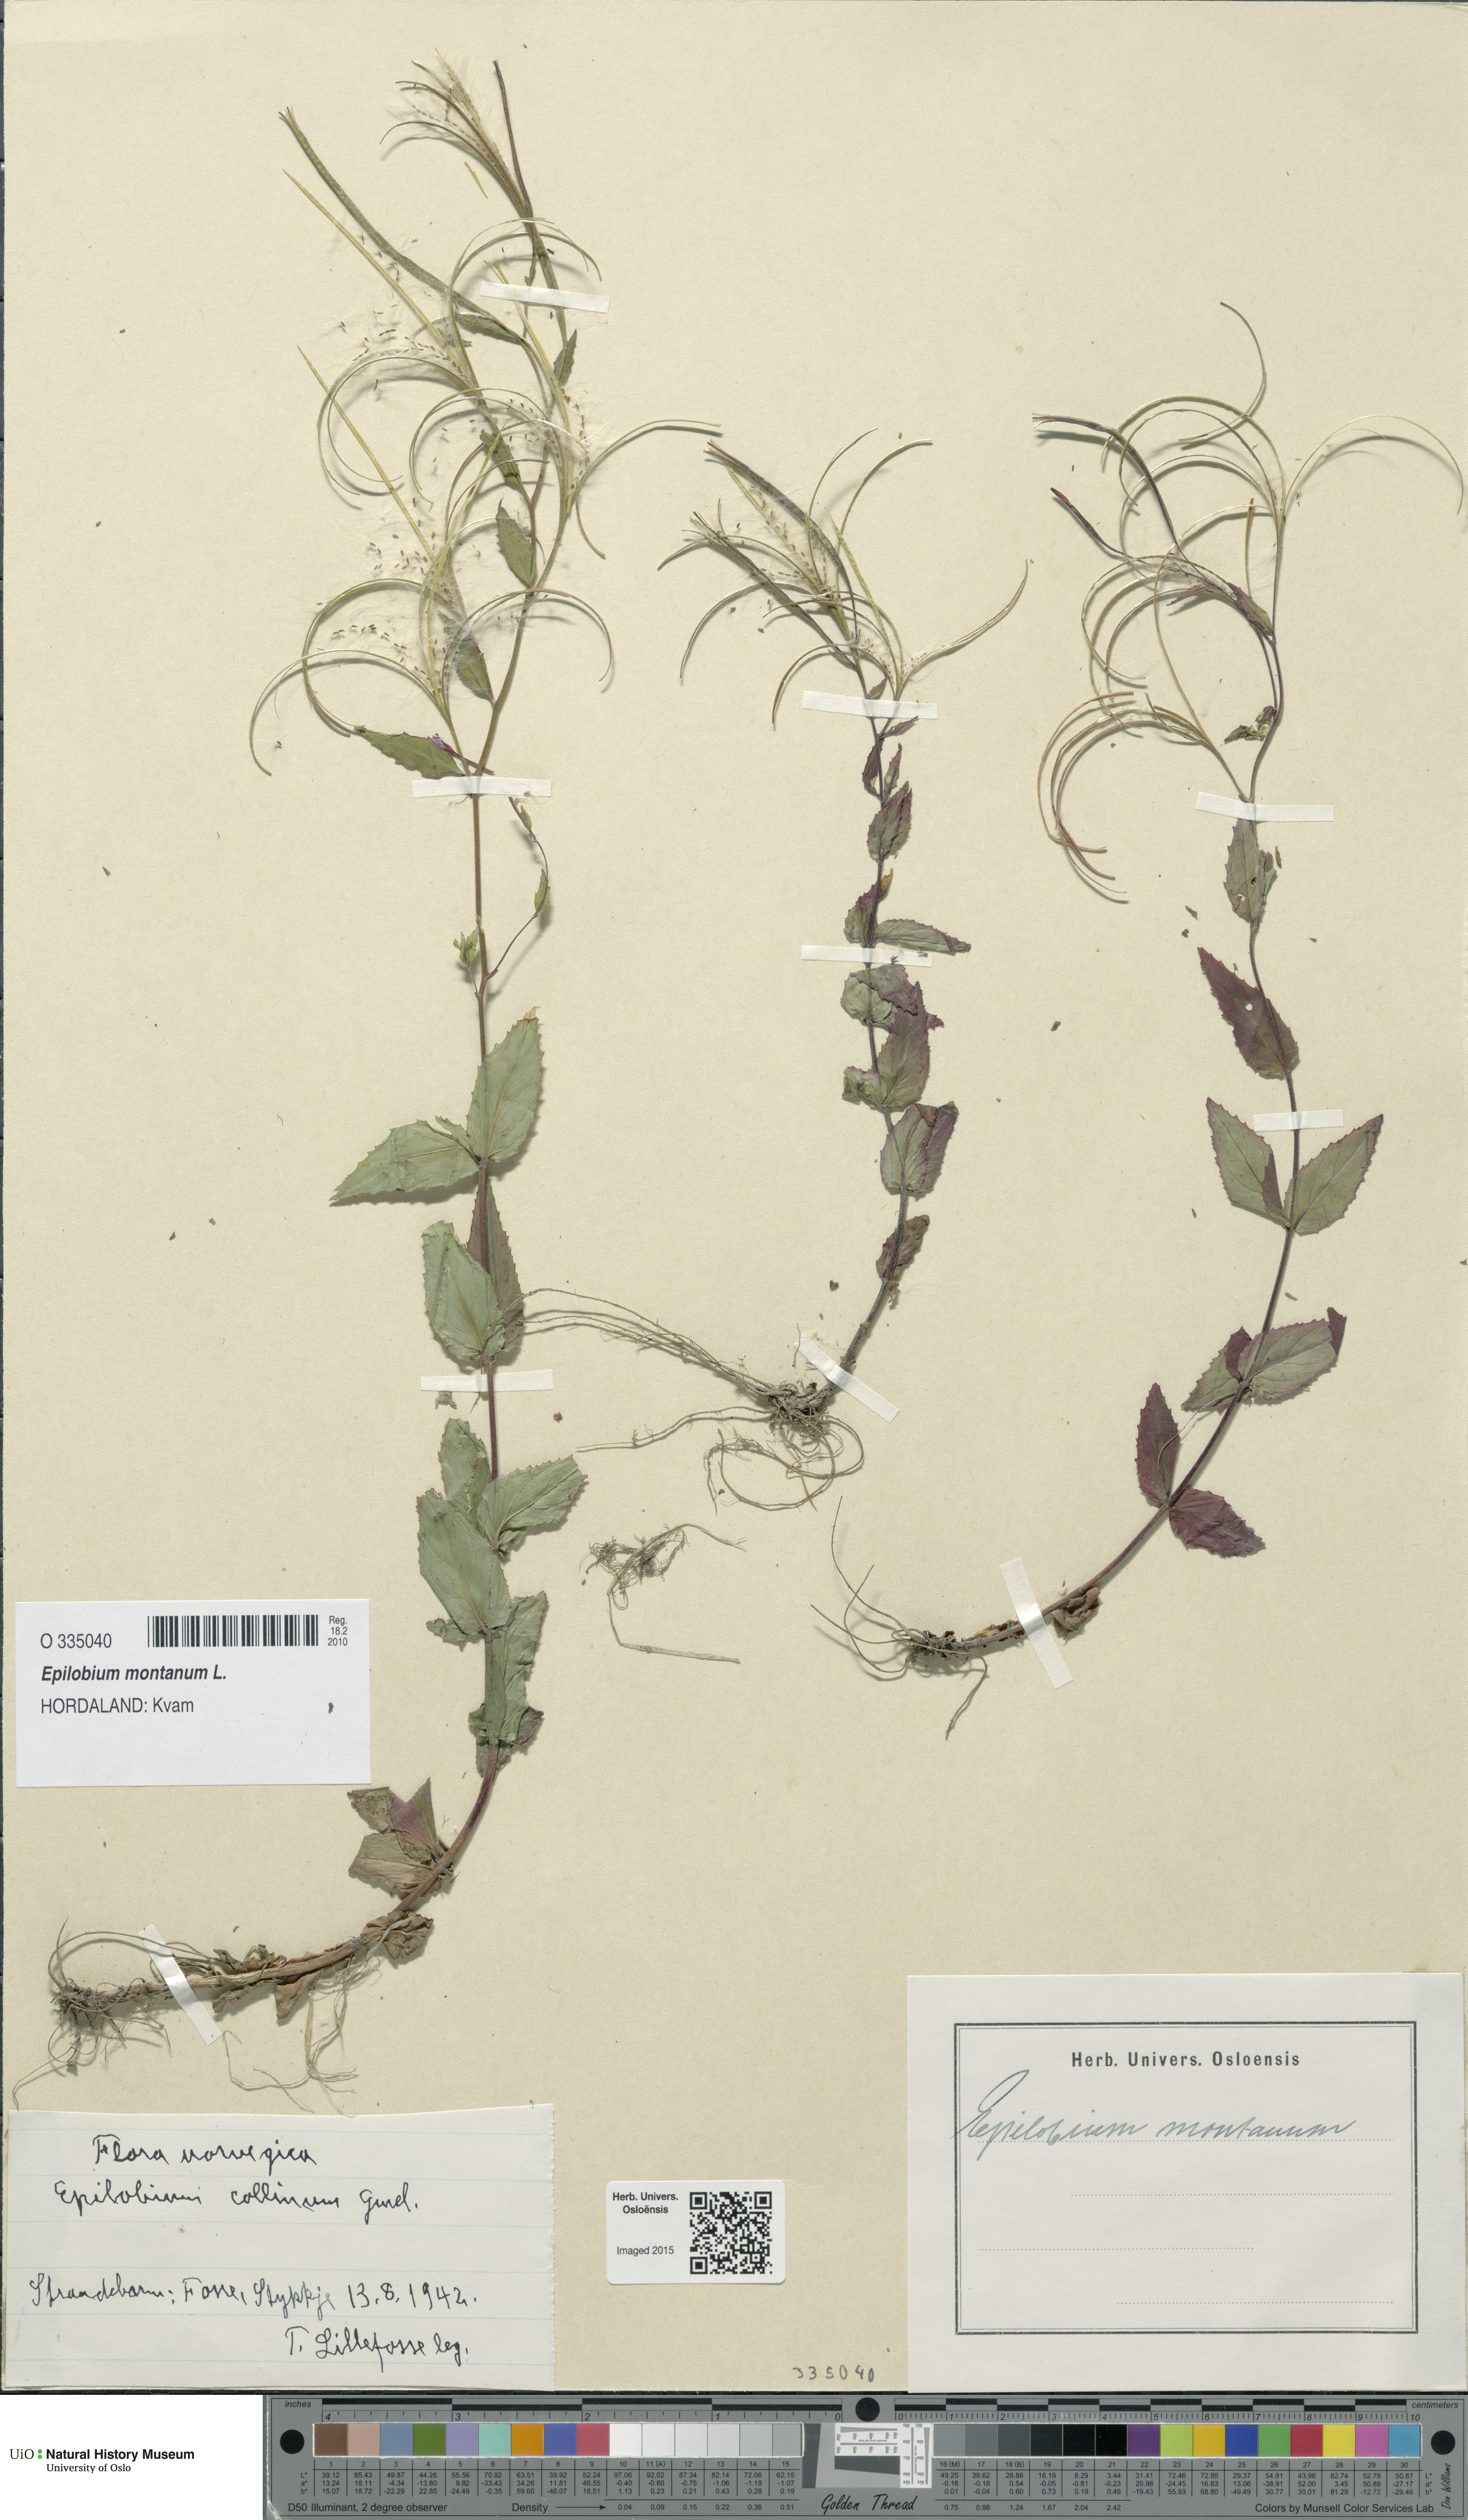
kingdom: Plantae
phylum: Tracheophyta
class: Magnoliopsida
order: Myrtales
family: Onagraceae
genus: Epilobium
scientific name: Epilobium montanum
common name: Broad-leaved willowherb
